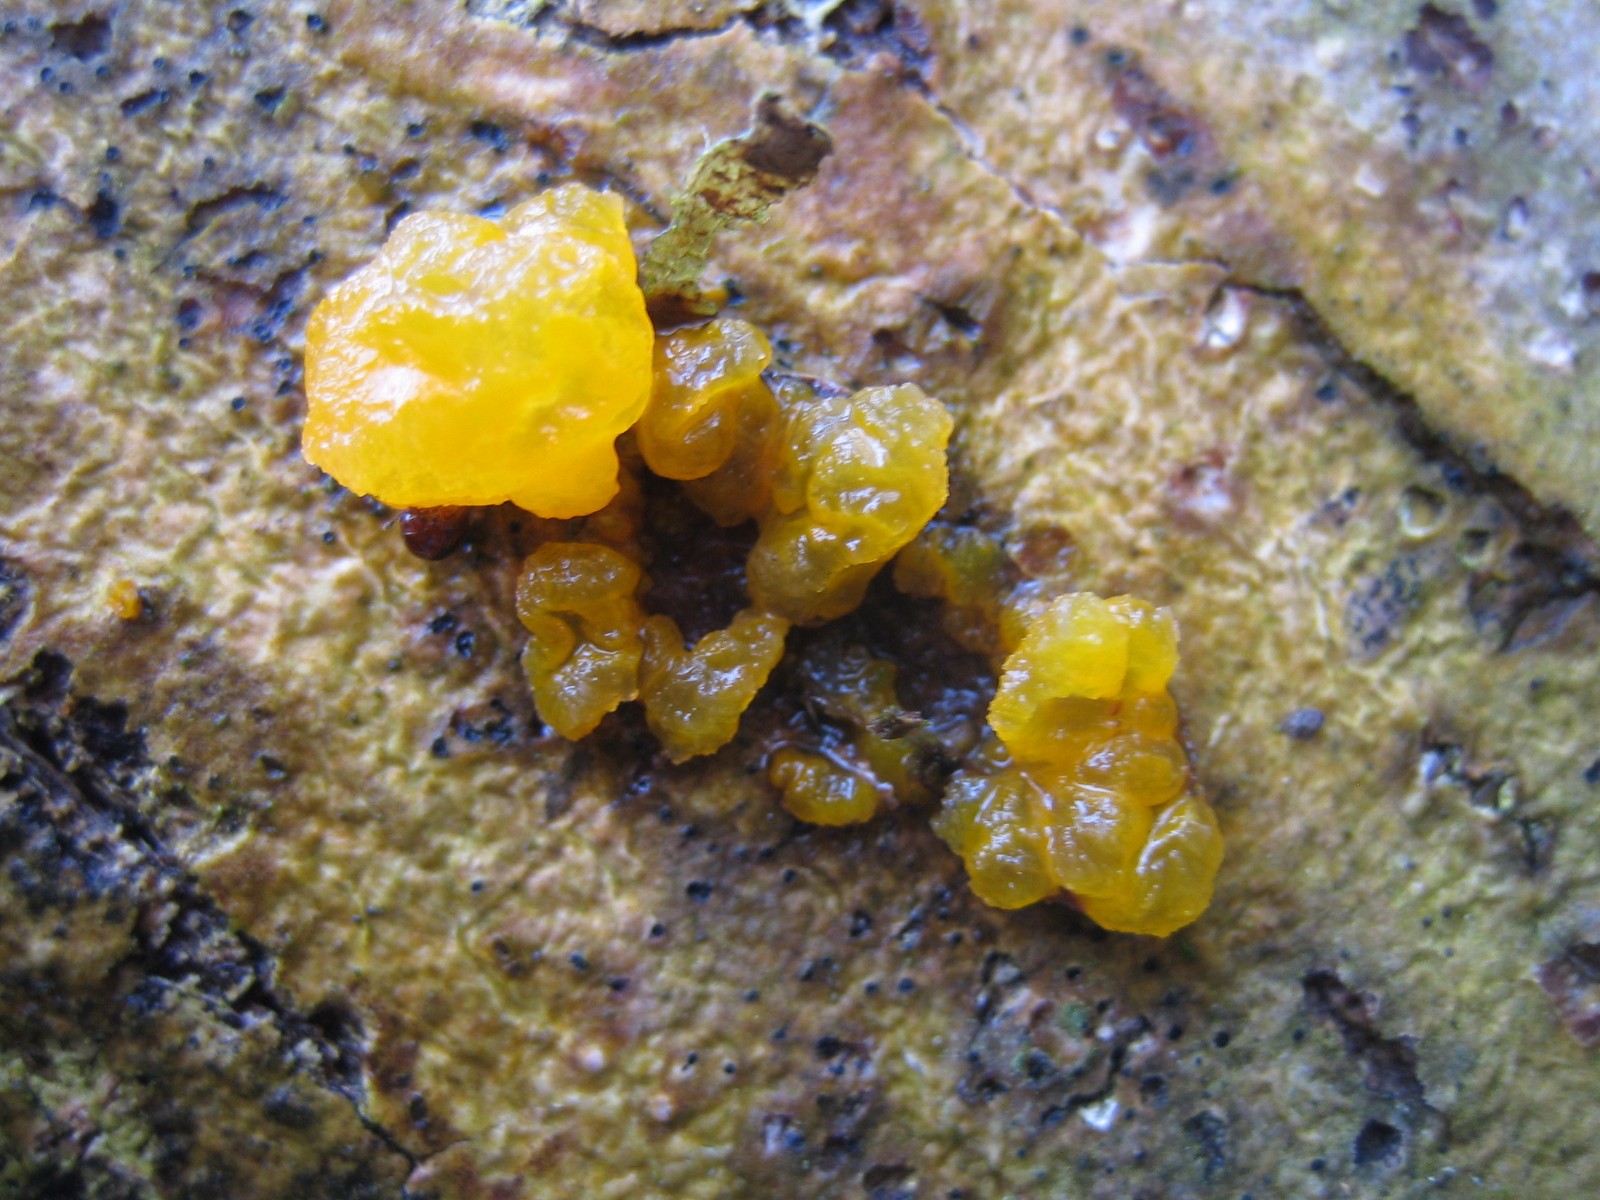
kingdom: Fungi
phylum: Basidiomycota
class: Tremellomycetes
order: Tremellales
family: Tremellaceae
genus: Tremella
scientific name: Tremella mesenterica
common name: gul bævresvamp
